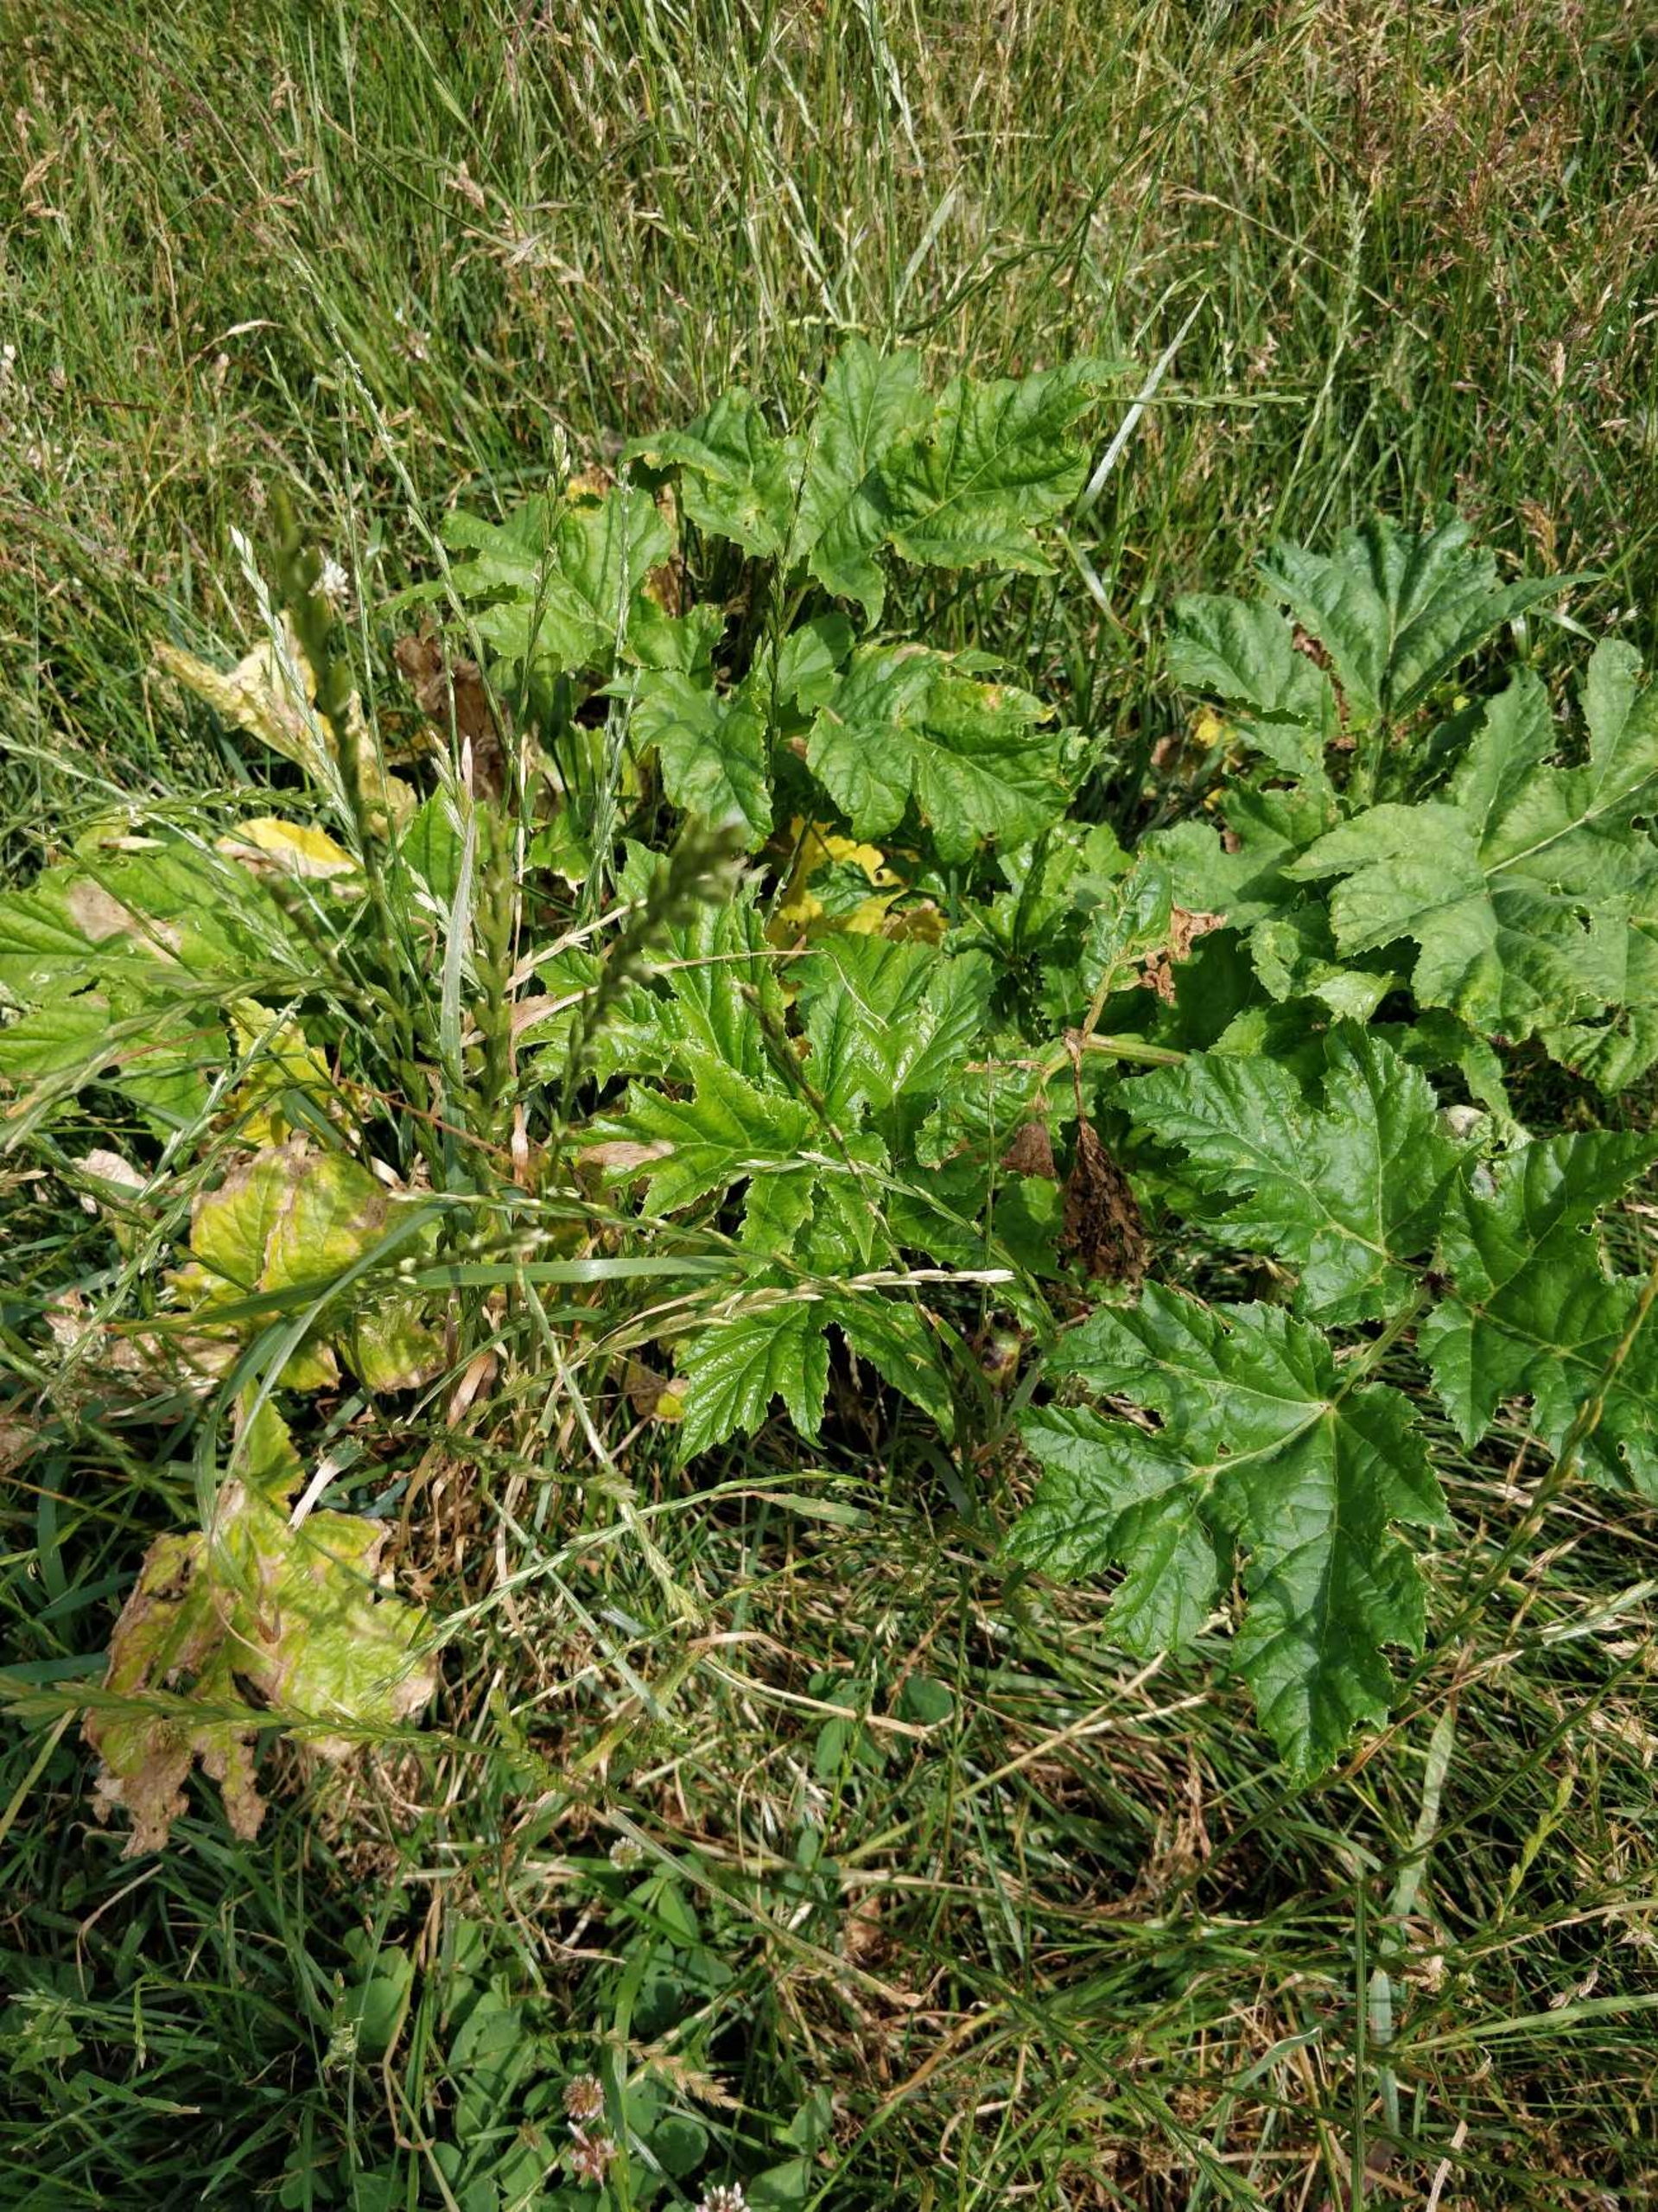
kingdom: Plantae
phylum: Tracheophyta
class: Magnoliopsida
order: Apiales
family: Apiaceae
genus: Heracleum
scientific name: Heracleum mantegazzianum
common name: Kæmpe-bjørneklo
